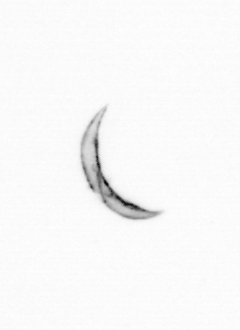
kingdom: Chromista
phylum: Ochrophyta
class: Bacillariophyceae
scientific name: Bacillariophyceae
